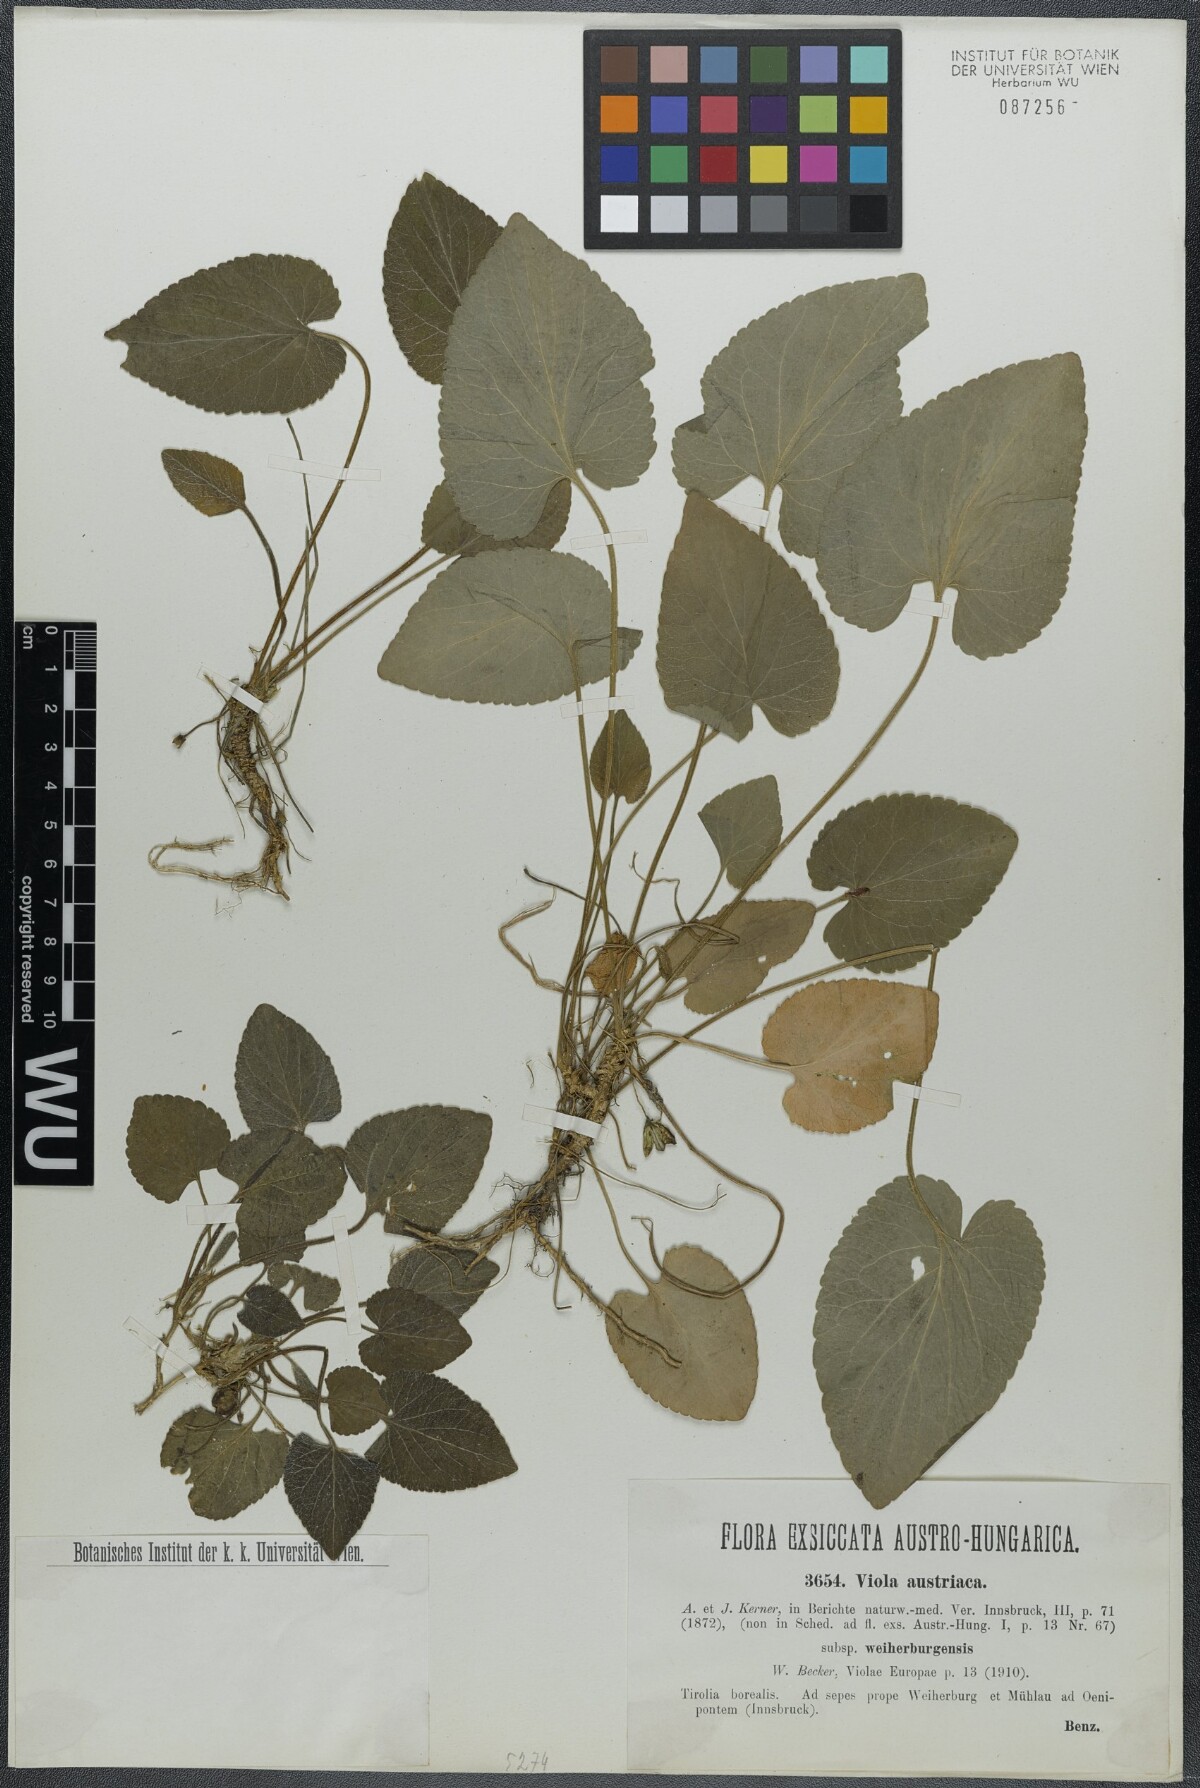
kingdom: Plantae
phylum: Tracheophyta
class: Magnoliopsida
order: Malpighiales
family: Violaceae
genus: Viola
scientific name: Viola suavis
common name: Russian violet
